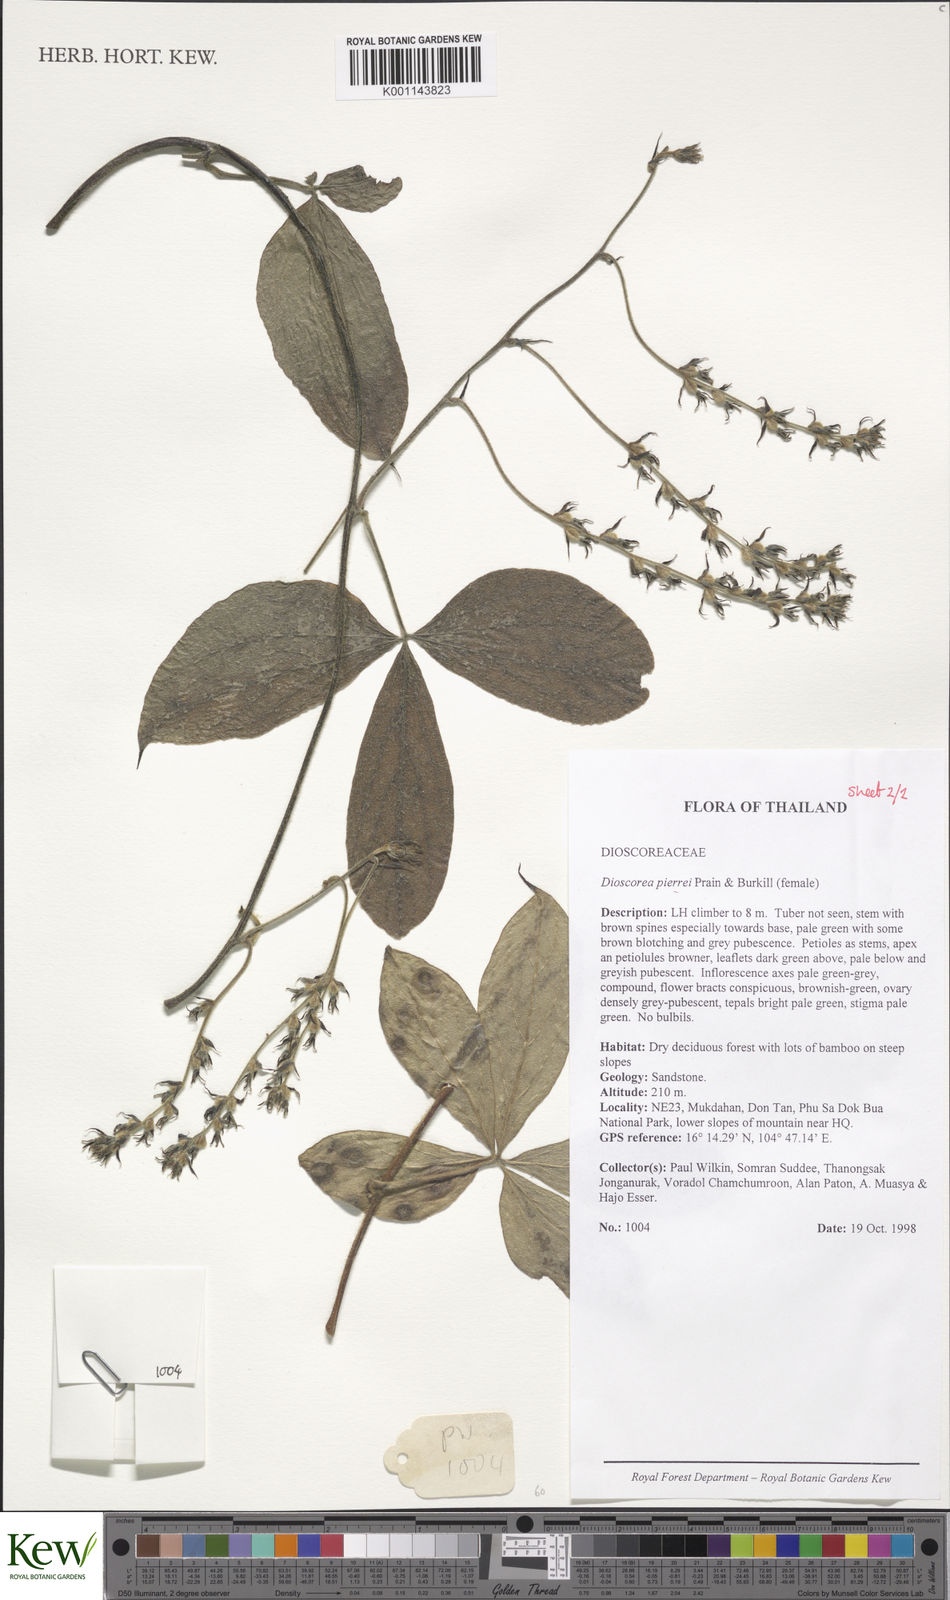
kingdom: Plantae
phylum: Tracheophyta
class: Liliopsida
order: Dioscoreales
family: Dioscoreaceae
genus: Dioscorea
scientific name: Dioscorea pierrei
